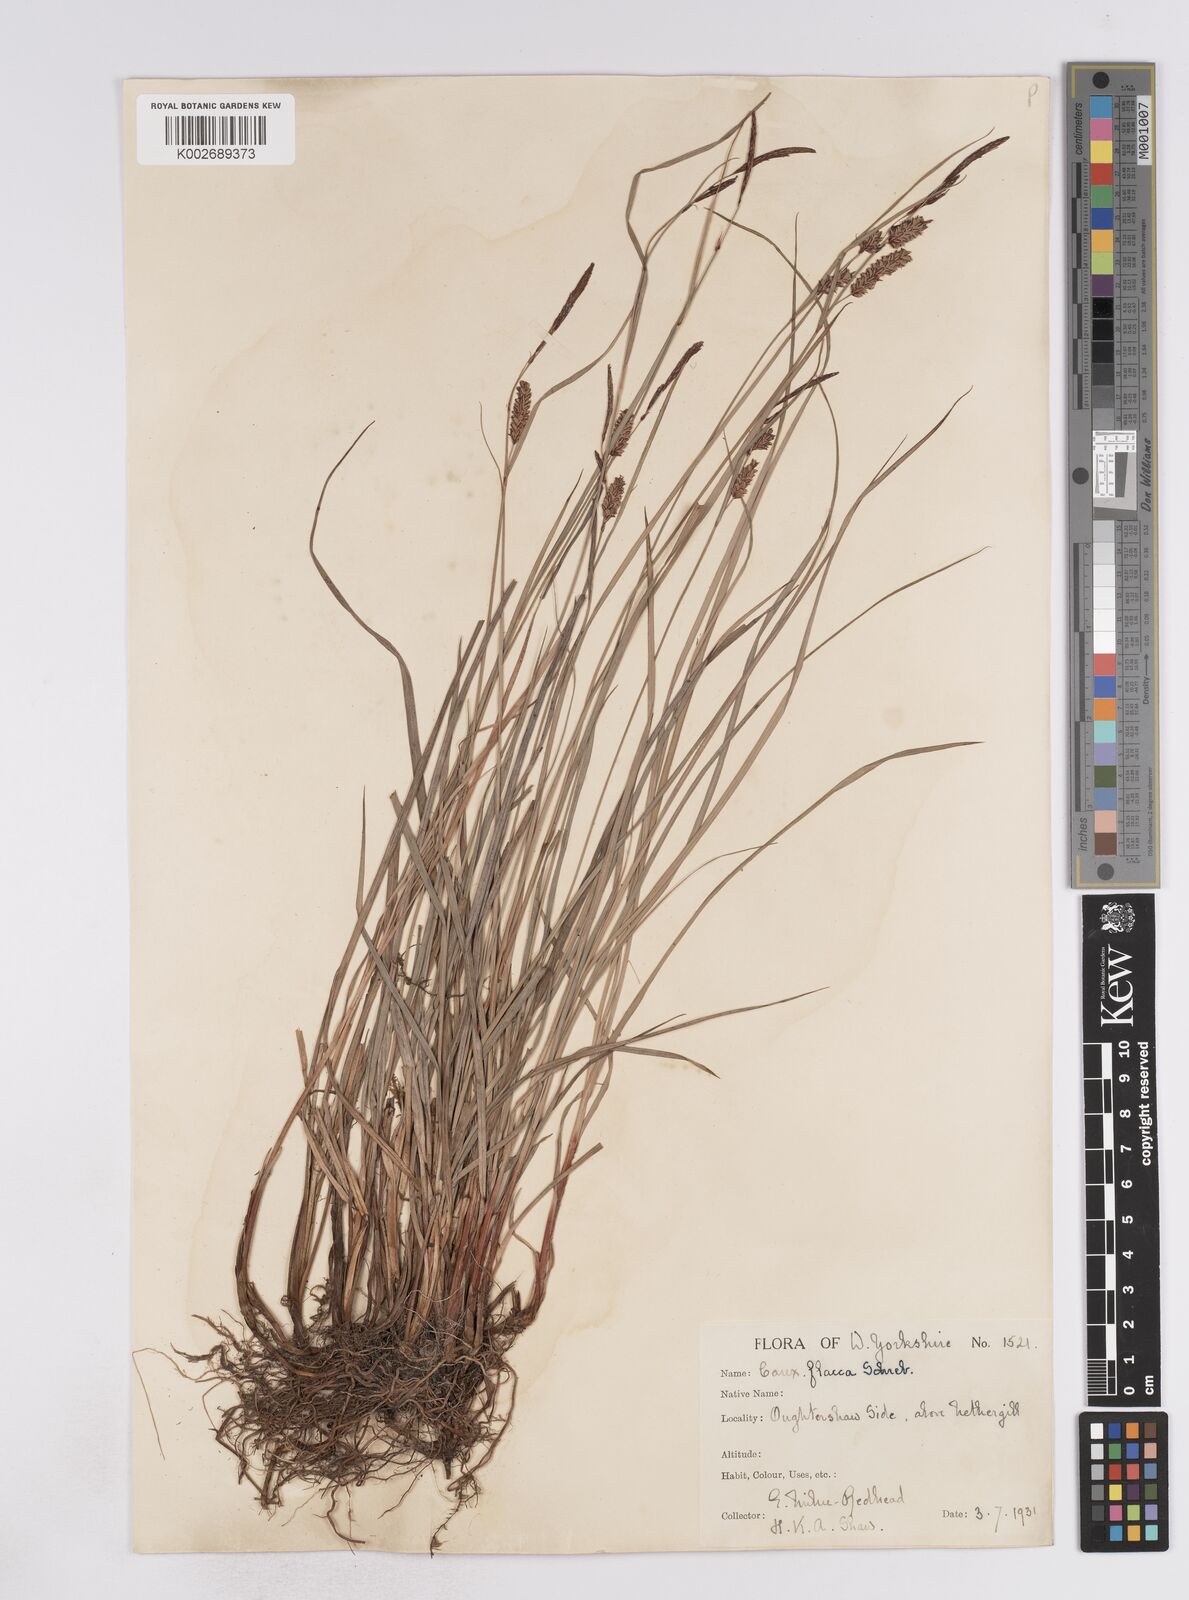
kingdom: Plantae
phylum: Tracheophyta
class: Liliopsida
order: Poales
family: Cyperaceae
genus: Carex
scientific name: Carex flacca
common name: Glaucous sedge
